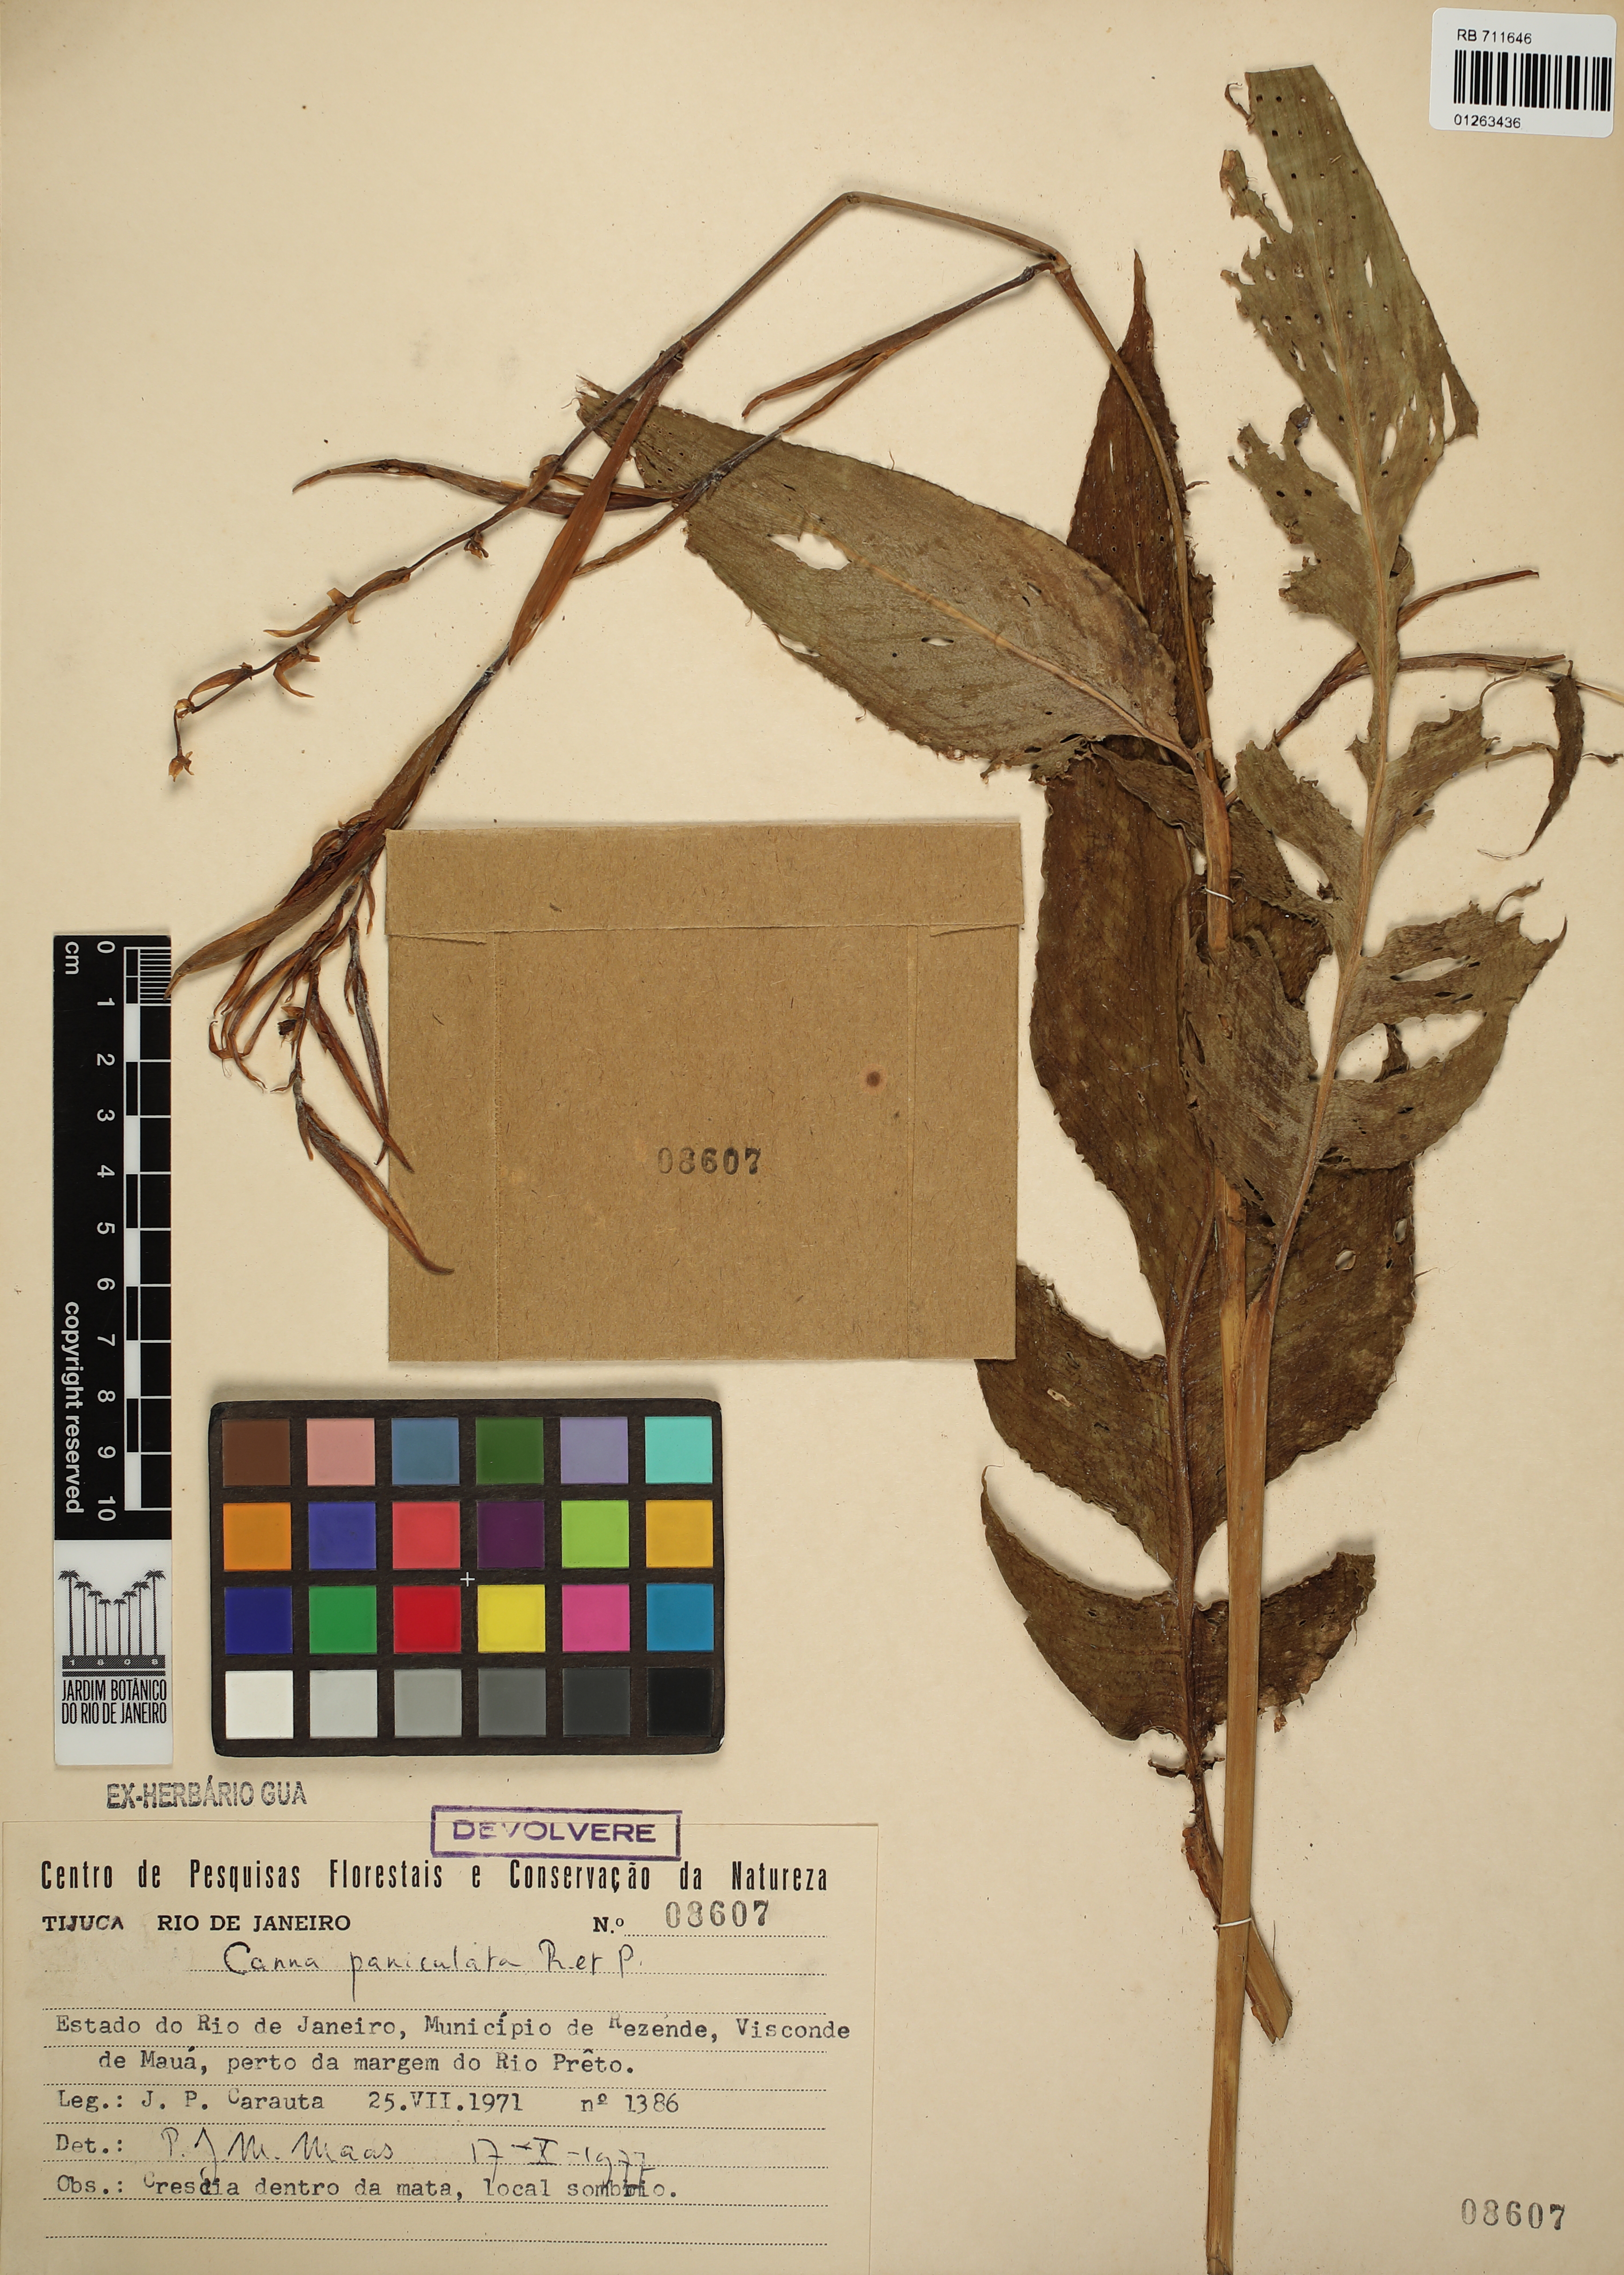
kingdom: Plantae
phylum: Tracheophyta
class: Liliopsida
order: Zingiberales
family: Cannaceae
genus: Canna
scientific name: Canna paniculata
